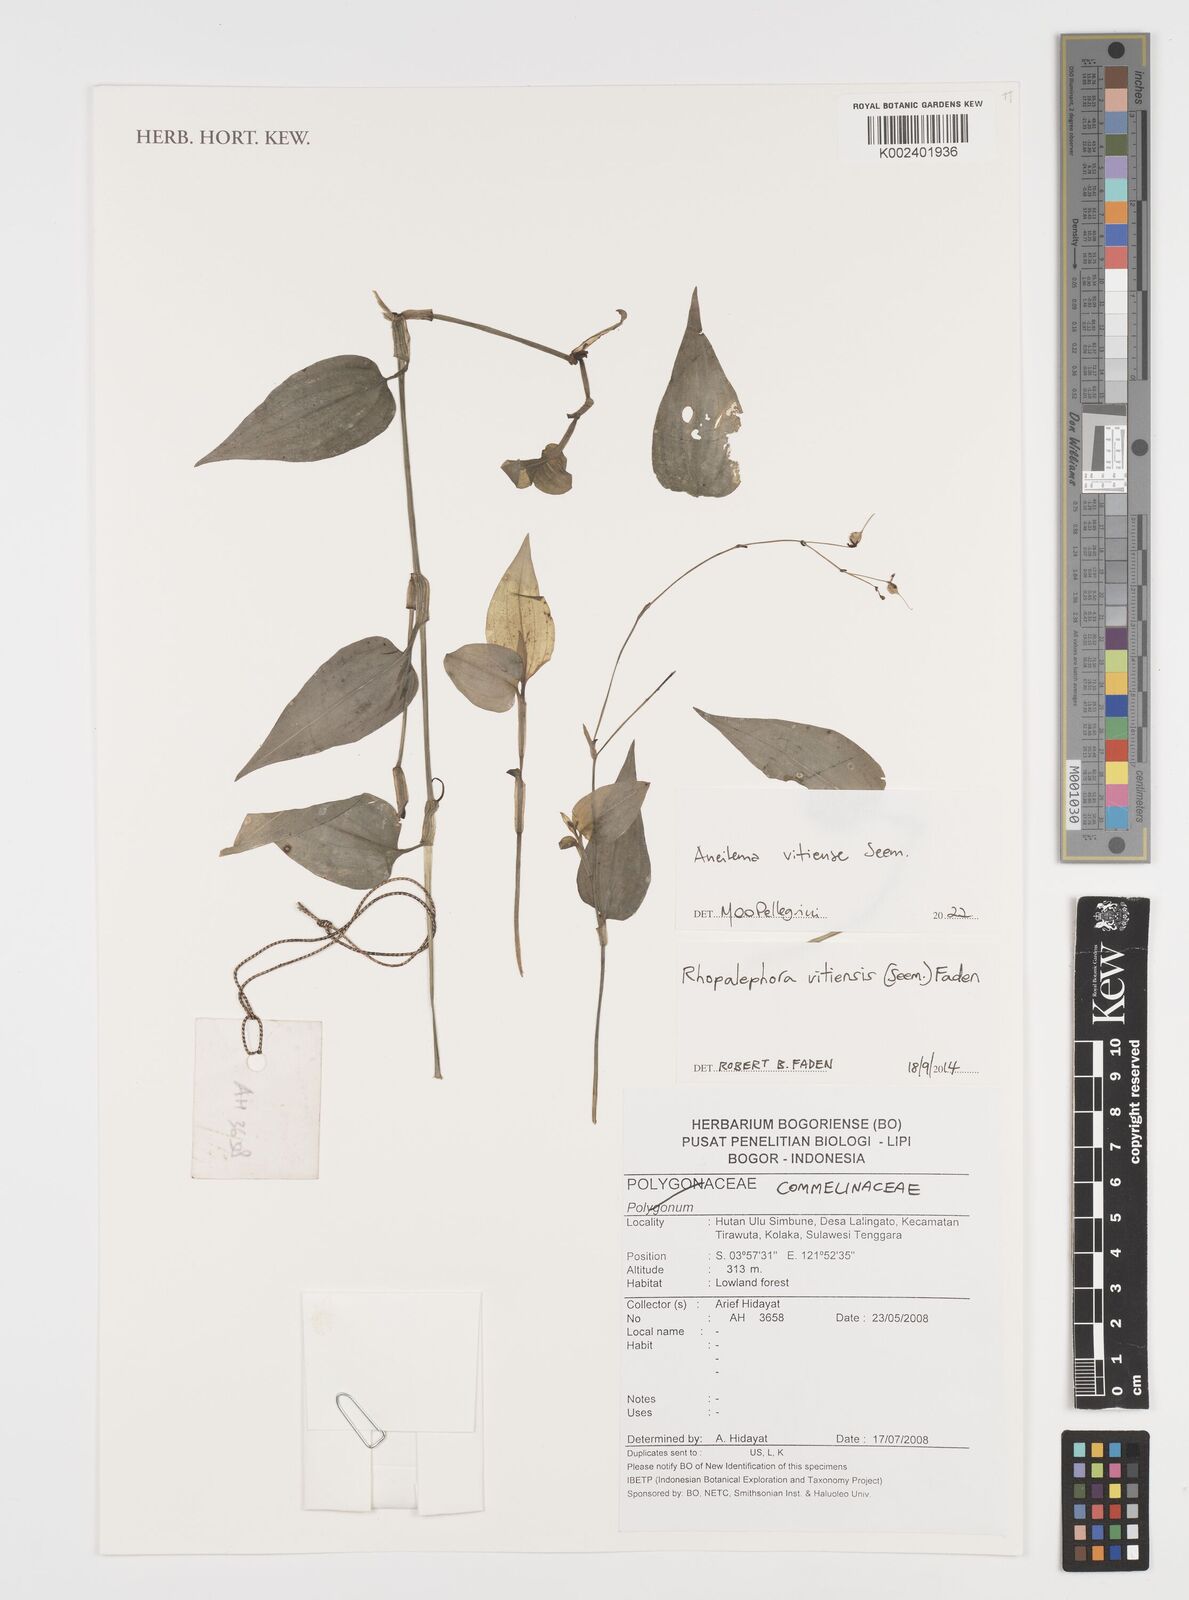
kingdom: Plantae
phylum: Tracheophyta
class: Liliopsida
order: Commelinales
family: Commelinaceae
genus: Rhopalephora
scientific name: Rhopalephora vitiensis
